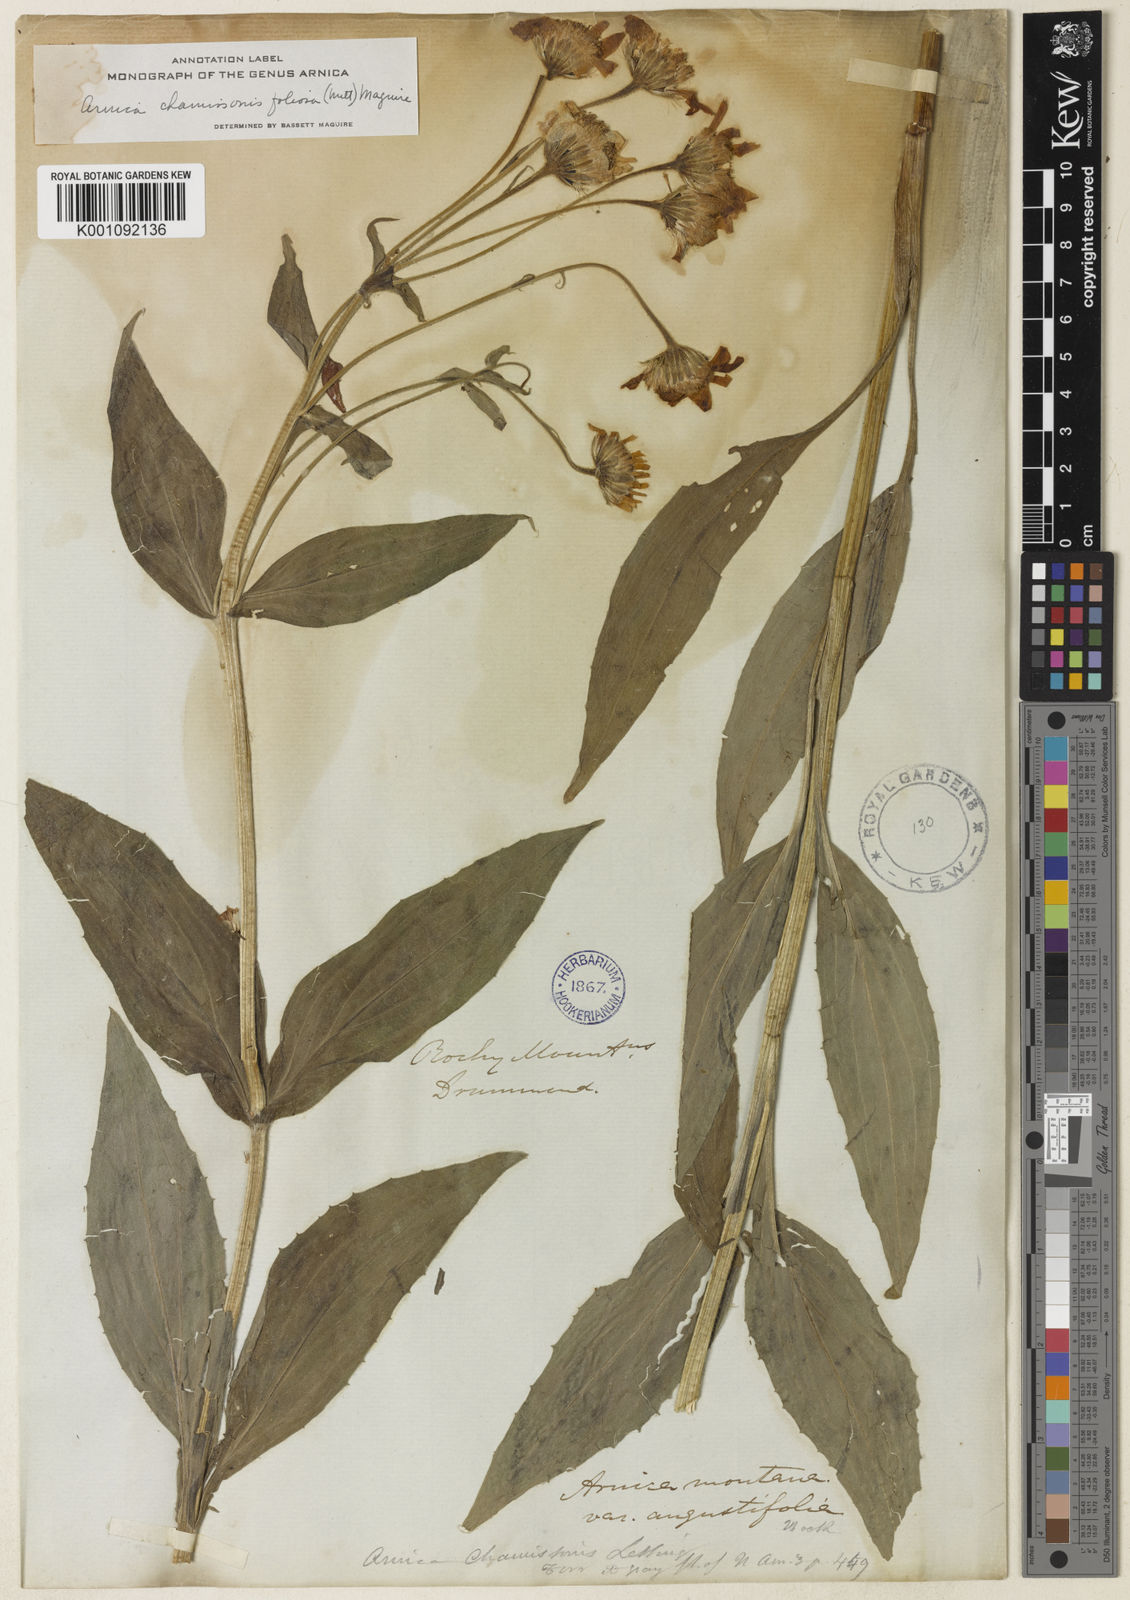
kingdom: Plantae
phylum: Tracheophyta
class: Magnoliopsida
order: Asterales
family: Asteraceae
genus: Arnica
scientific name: Arnica
